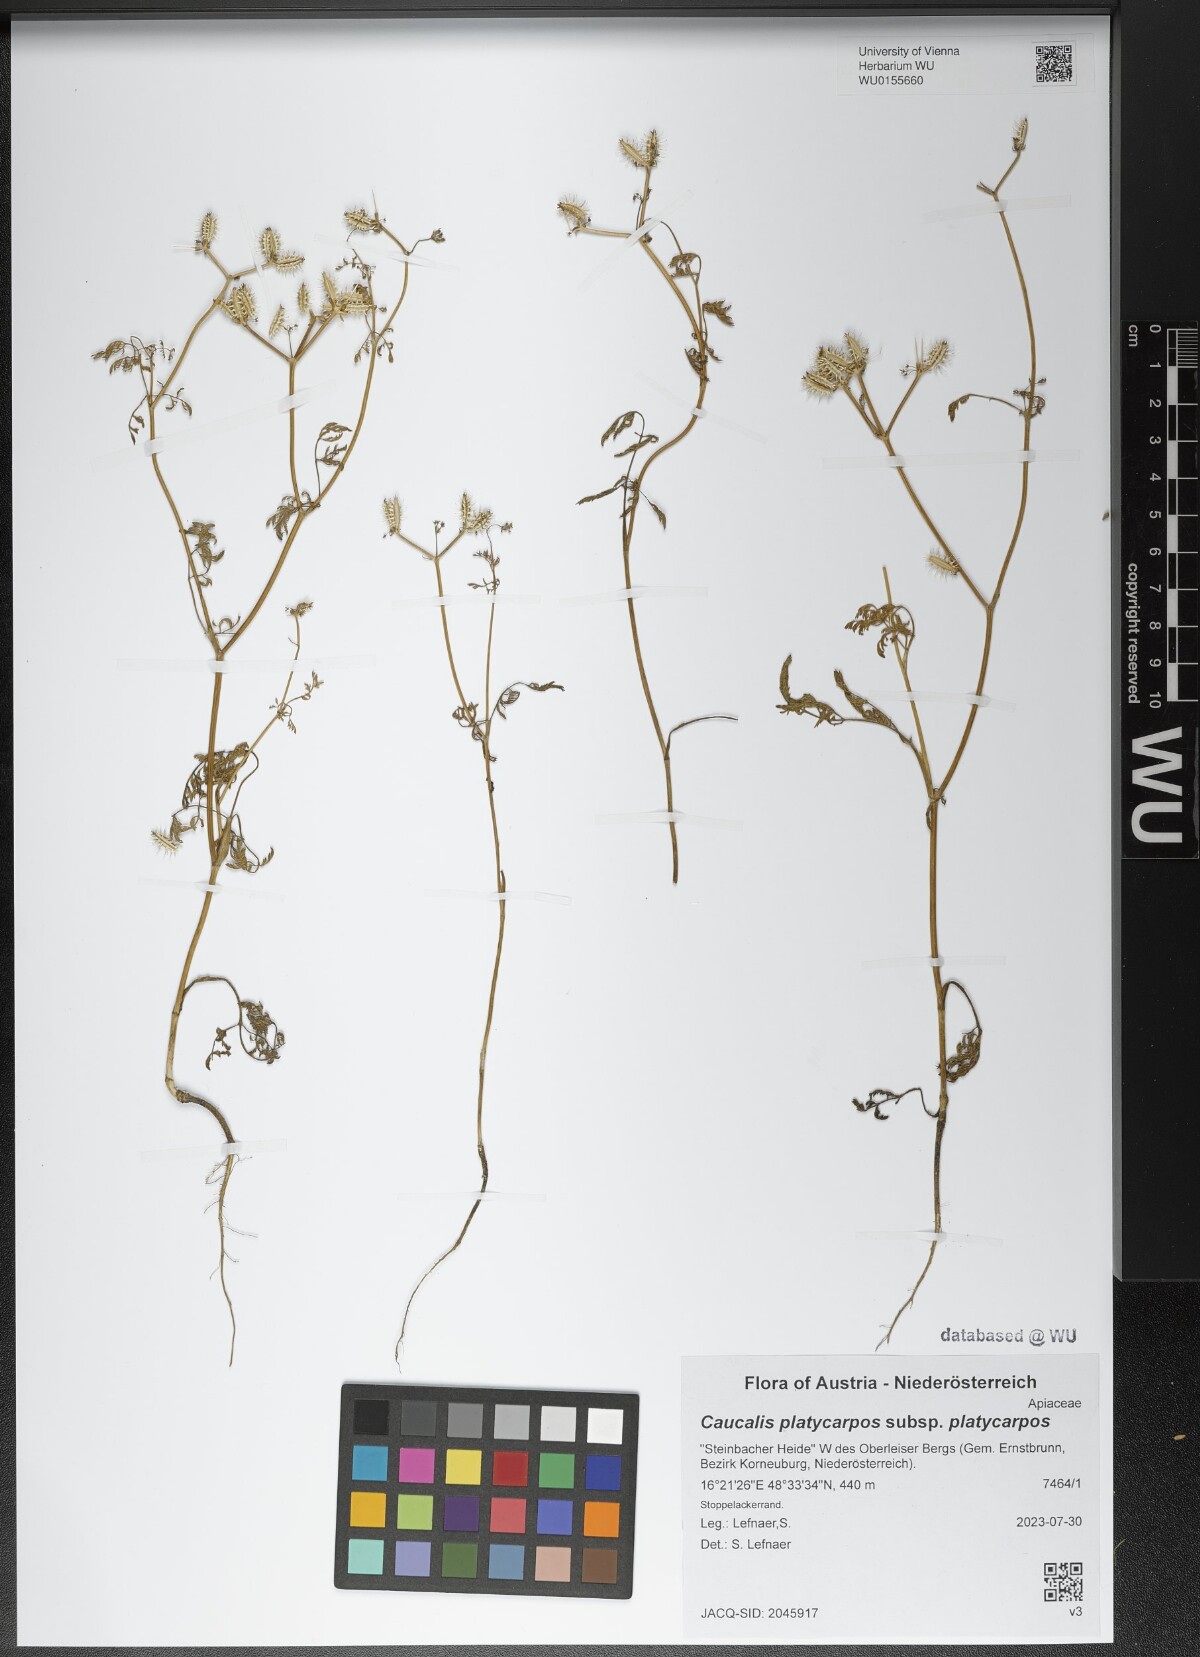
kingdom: Plantae
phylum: Tracheophyta
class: Magnoliopsida
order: Apiales
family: Apiaceae
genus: Caucalis
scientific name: Caucalis platycarpos
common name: Small bur-parsley
